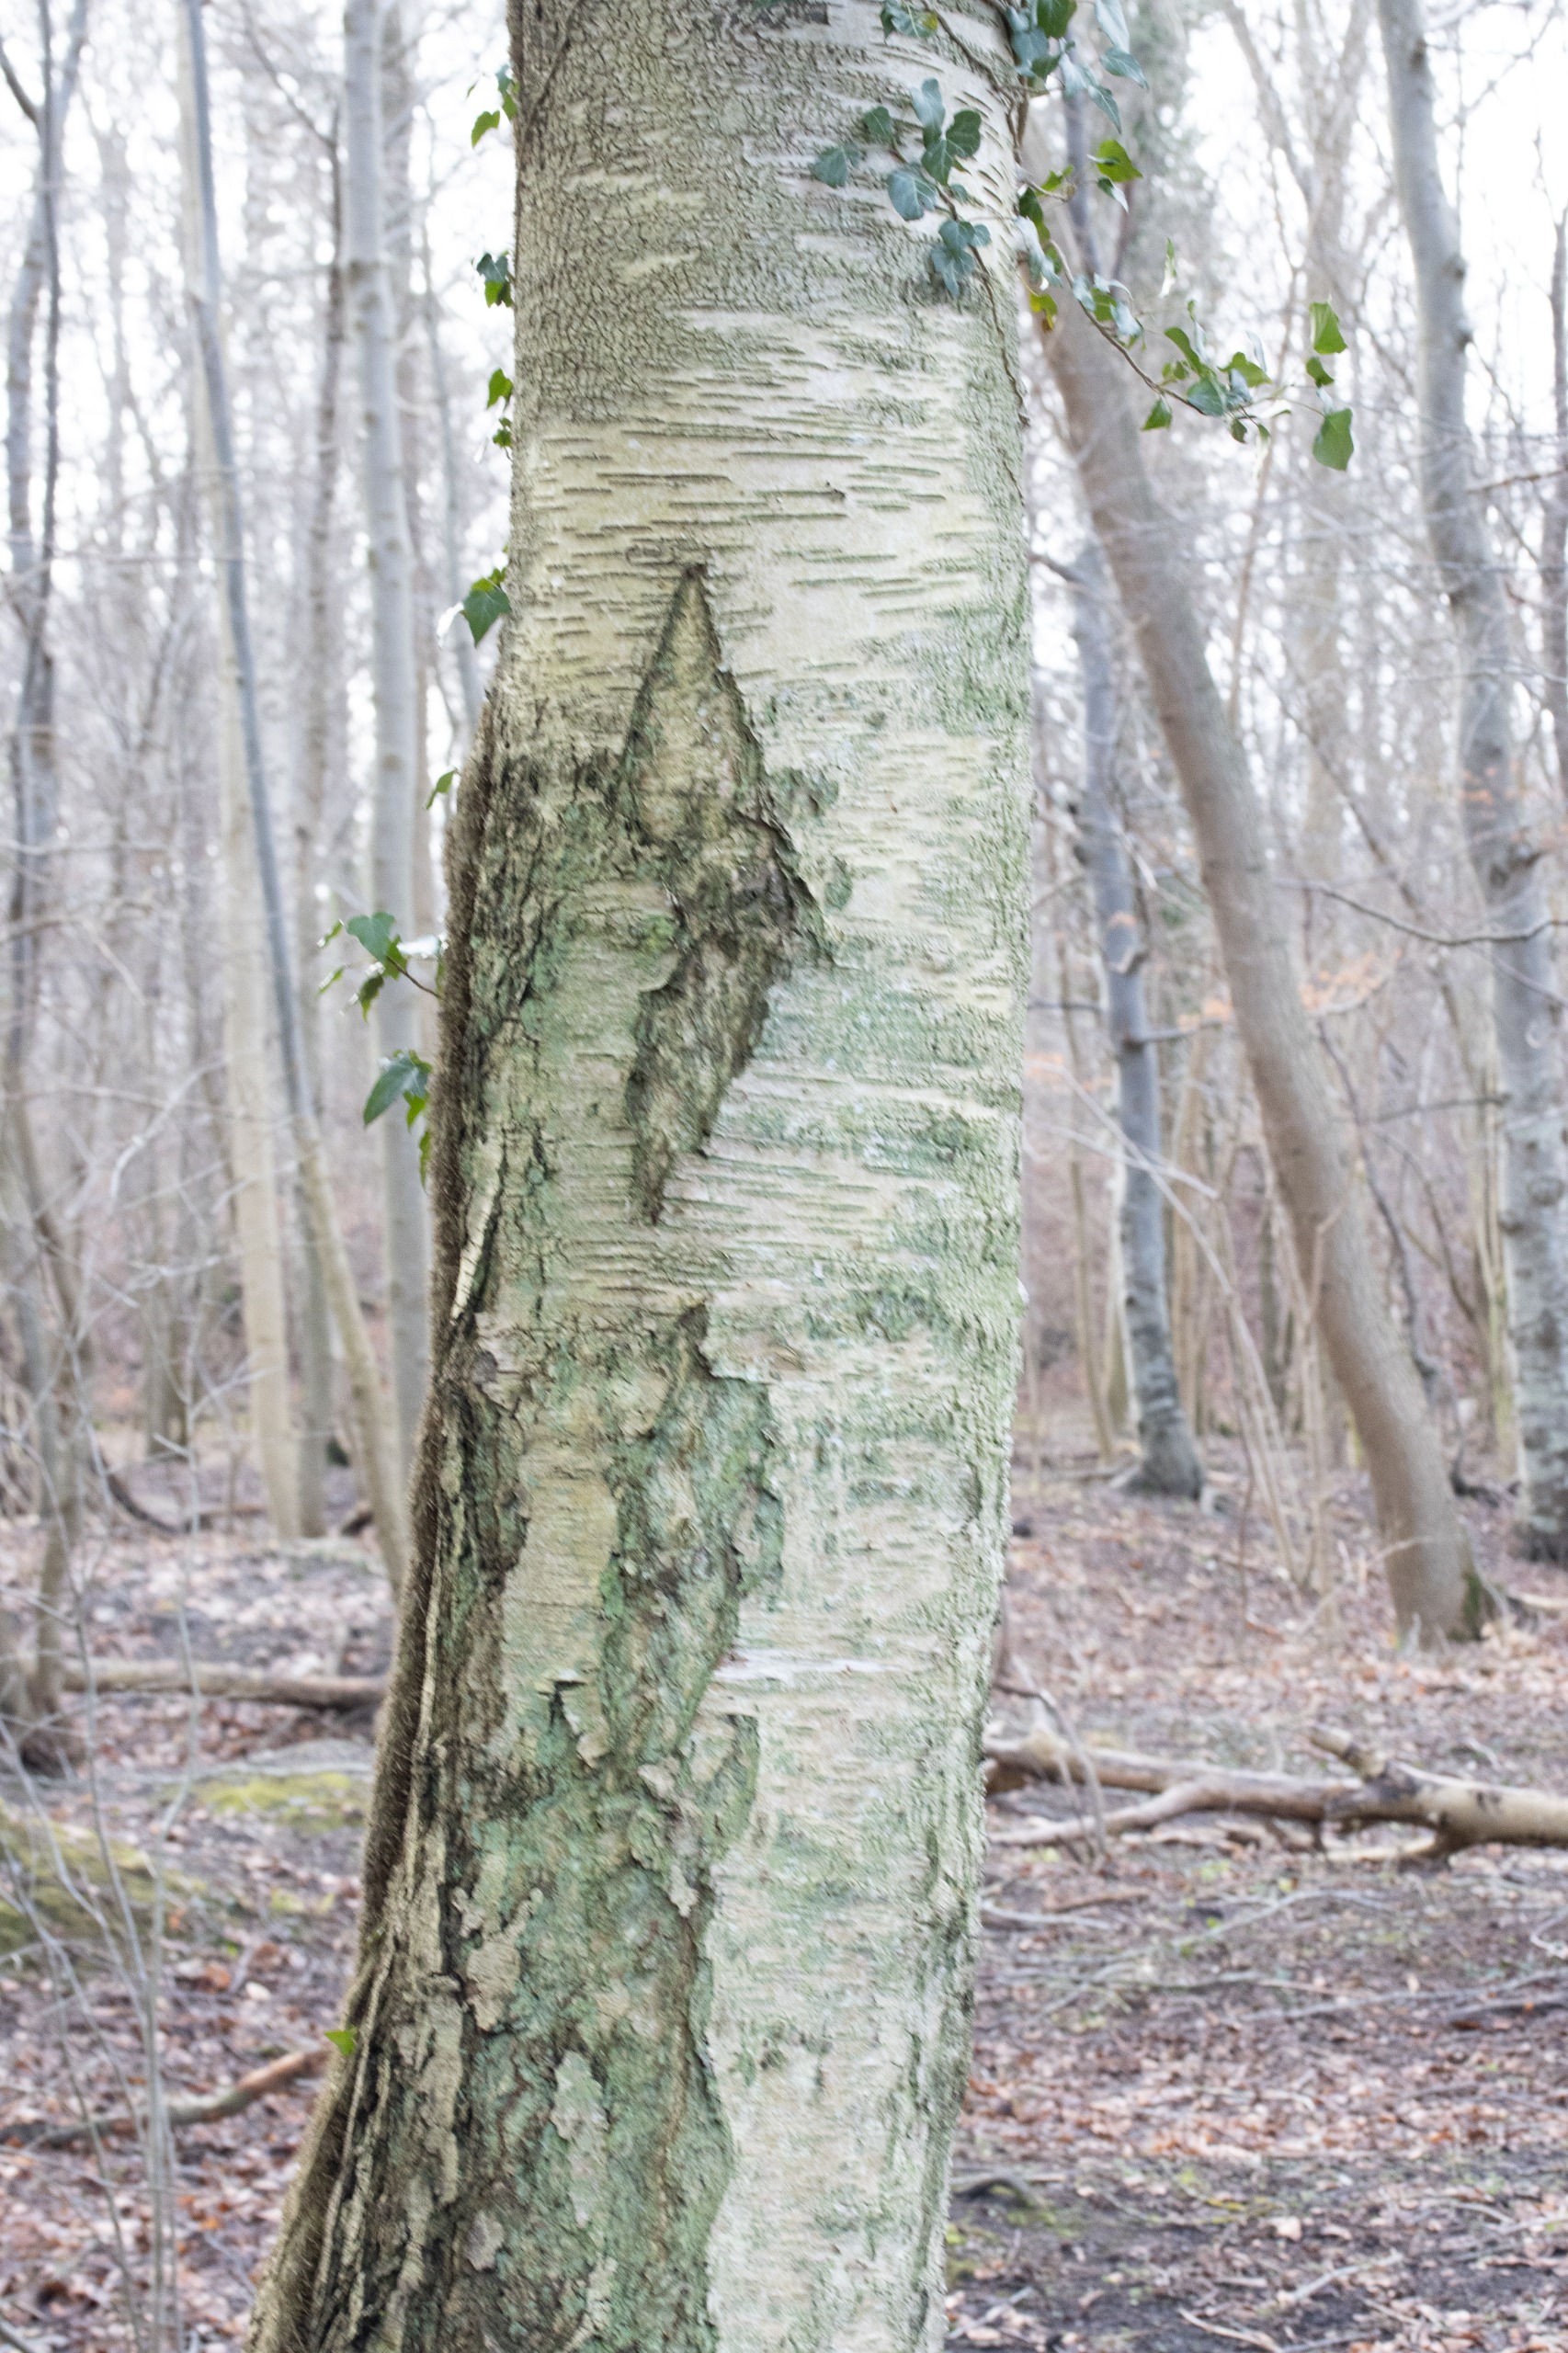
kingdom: Plantae
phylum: Tracheophyta
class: Magnoliopsida
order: Fagales
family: Betulaceae
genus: Betula
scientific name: Betula pendula
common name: Vorte-birk
